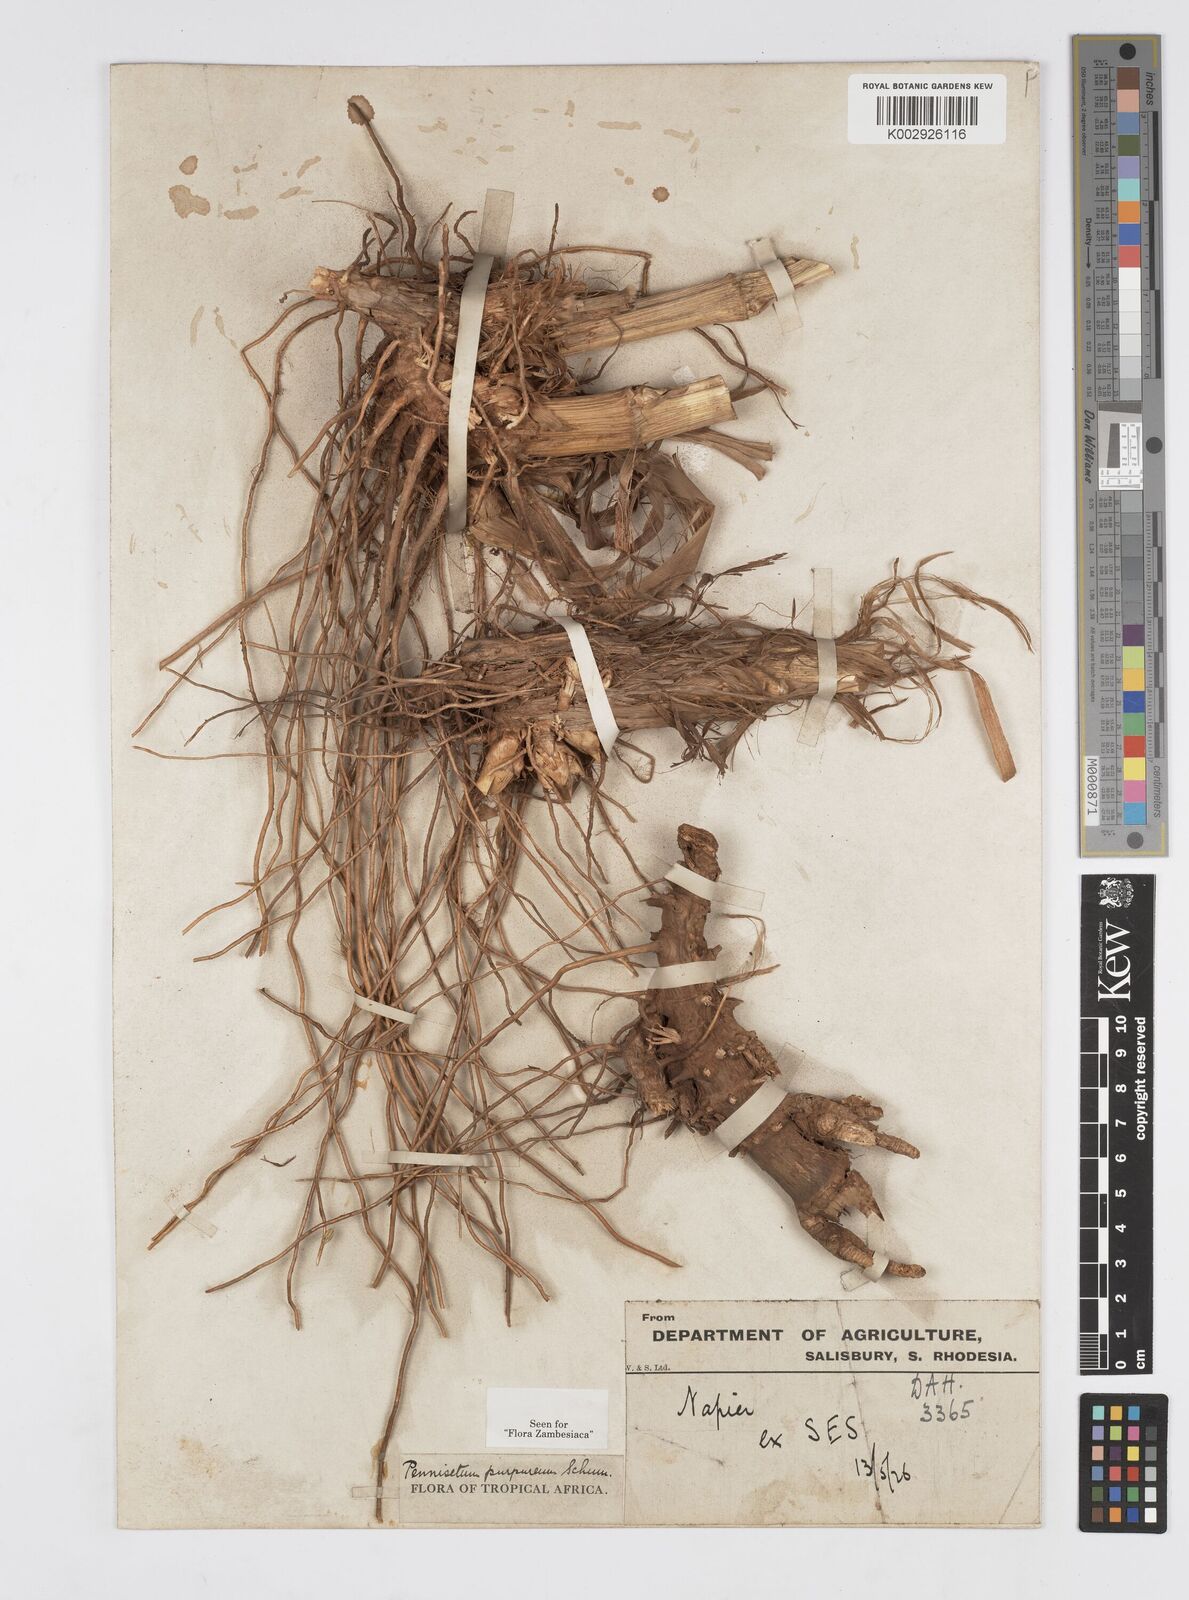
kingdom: Plantae
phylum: Tracheophyta
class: Liliopsida
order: Poales
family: Poaceae
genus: Cenchrus
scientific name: Cenchrus purpureus
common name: Elephant grass
